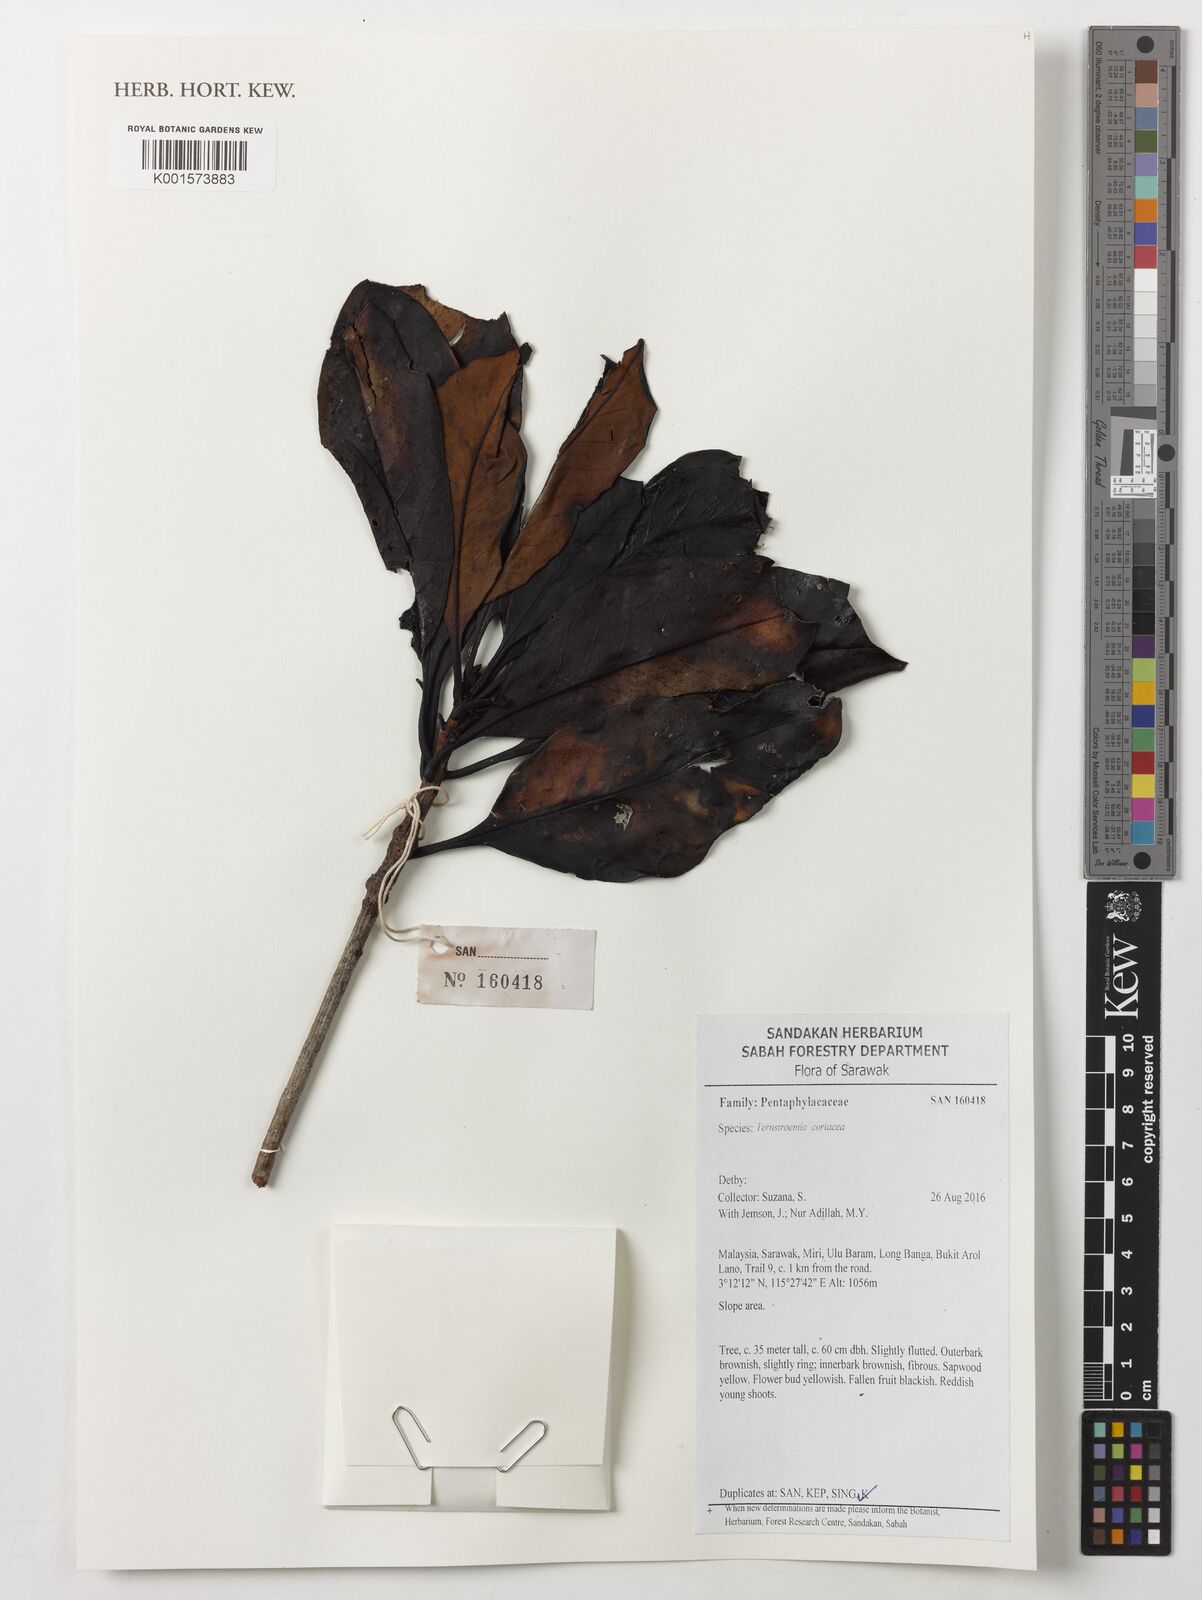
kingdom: Plantae
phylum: Tracheophyta
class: Magnoliopsida
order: Ericales
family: Pentaphylacaceae
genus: Ternstroemia
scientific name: Ternstroemia coriacea
